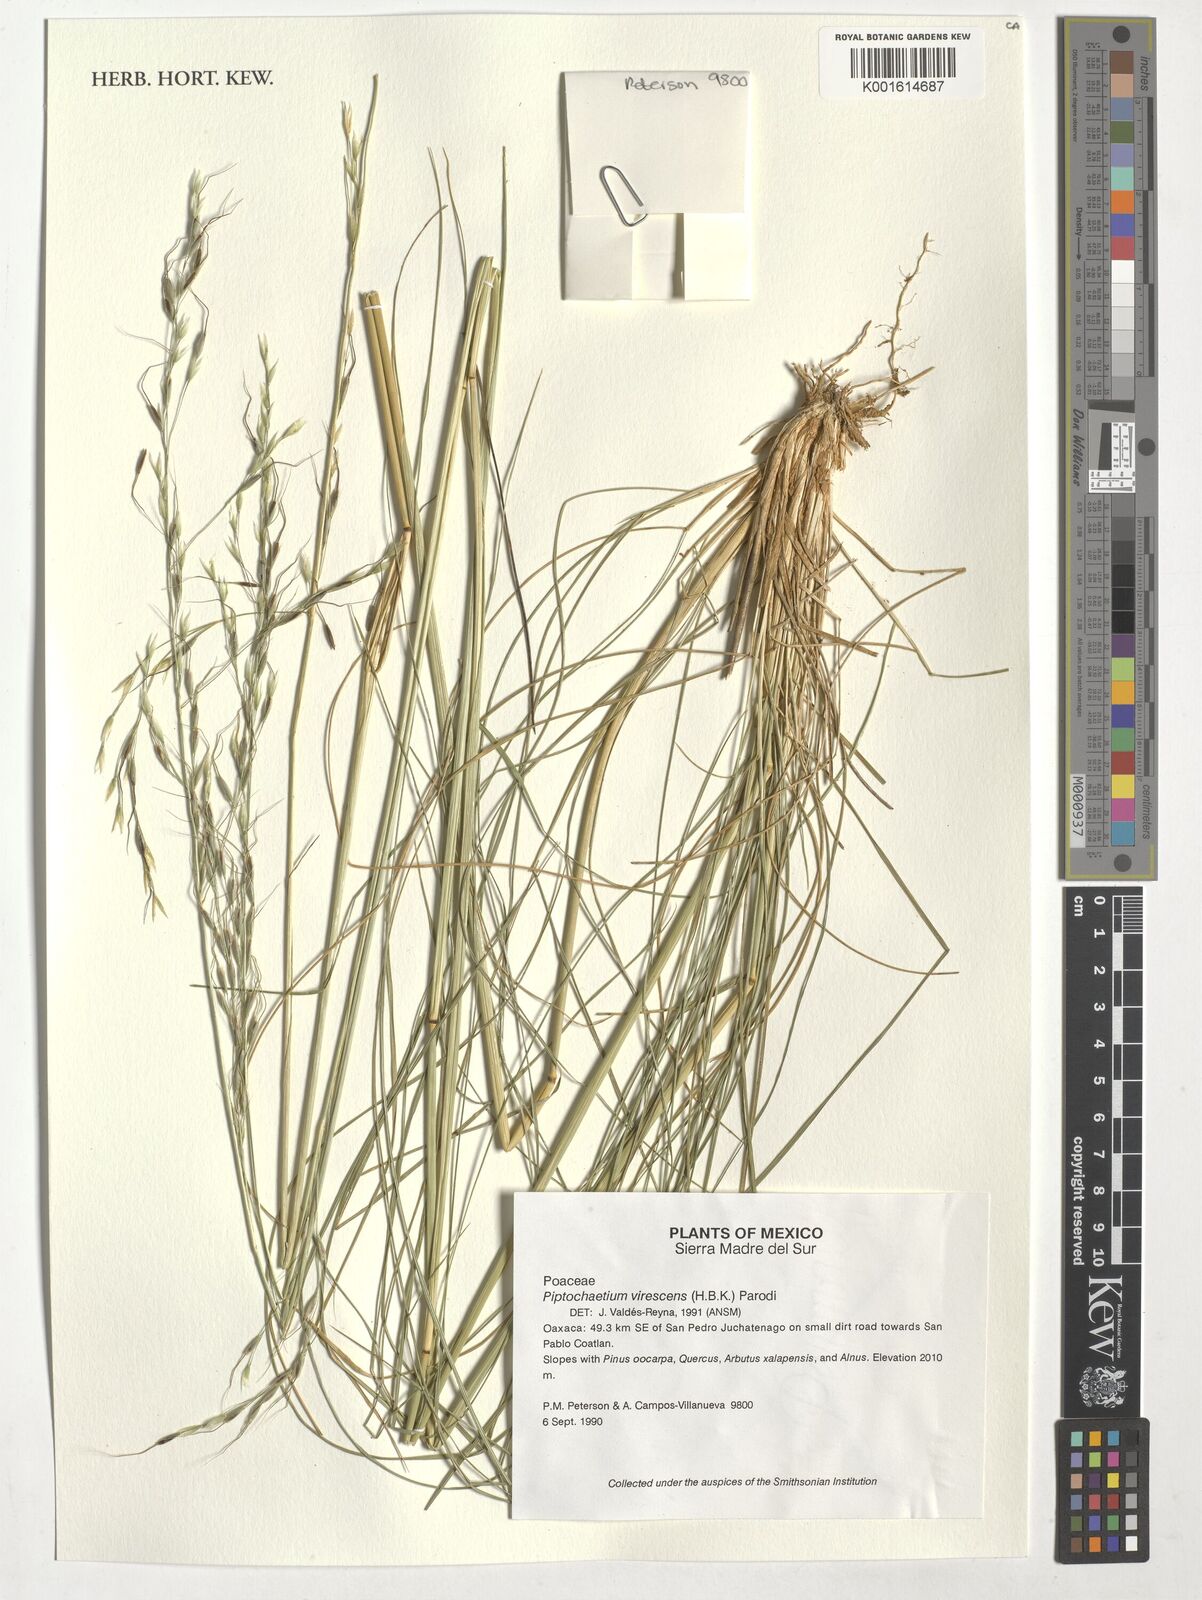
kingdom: Plantae
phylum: Tracheophyta
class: Liliopsida
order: Poales
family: Poaceae
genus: Piptochaetium
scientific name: Piptochaetium virescens
